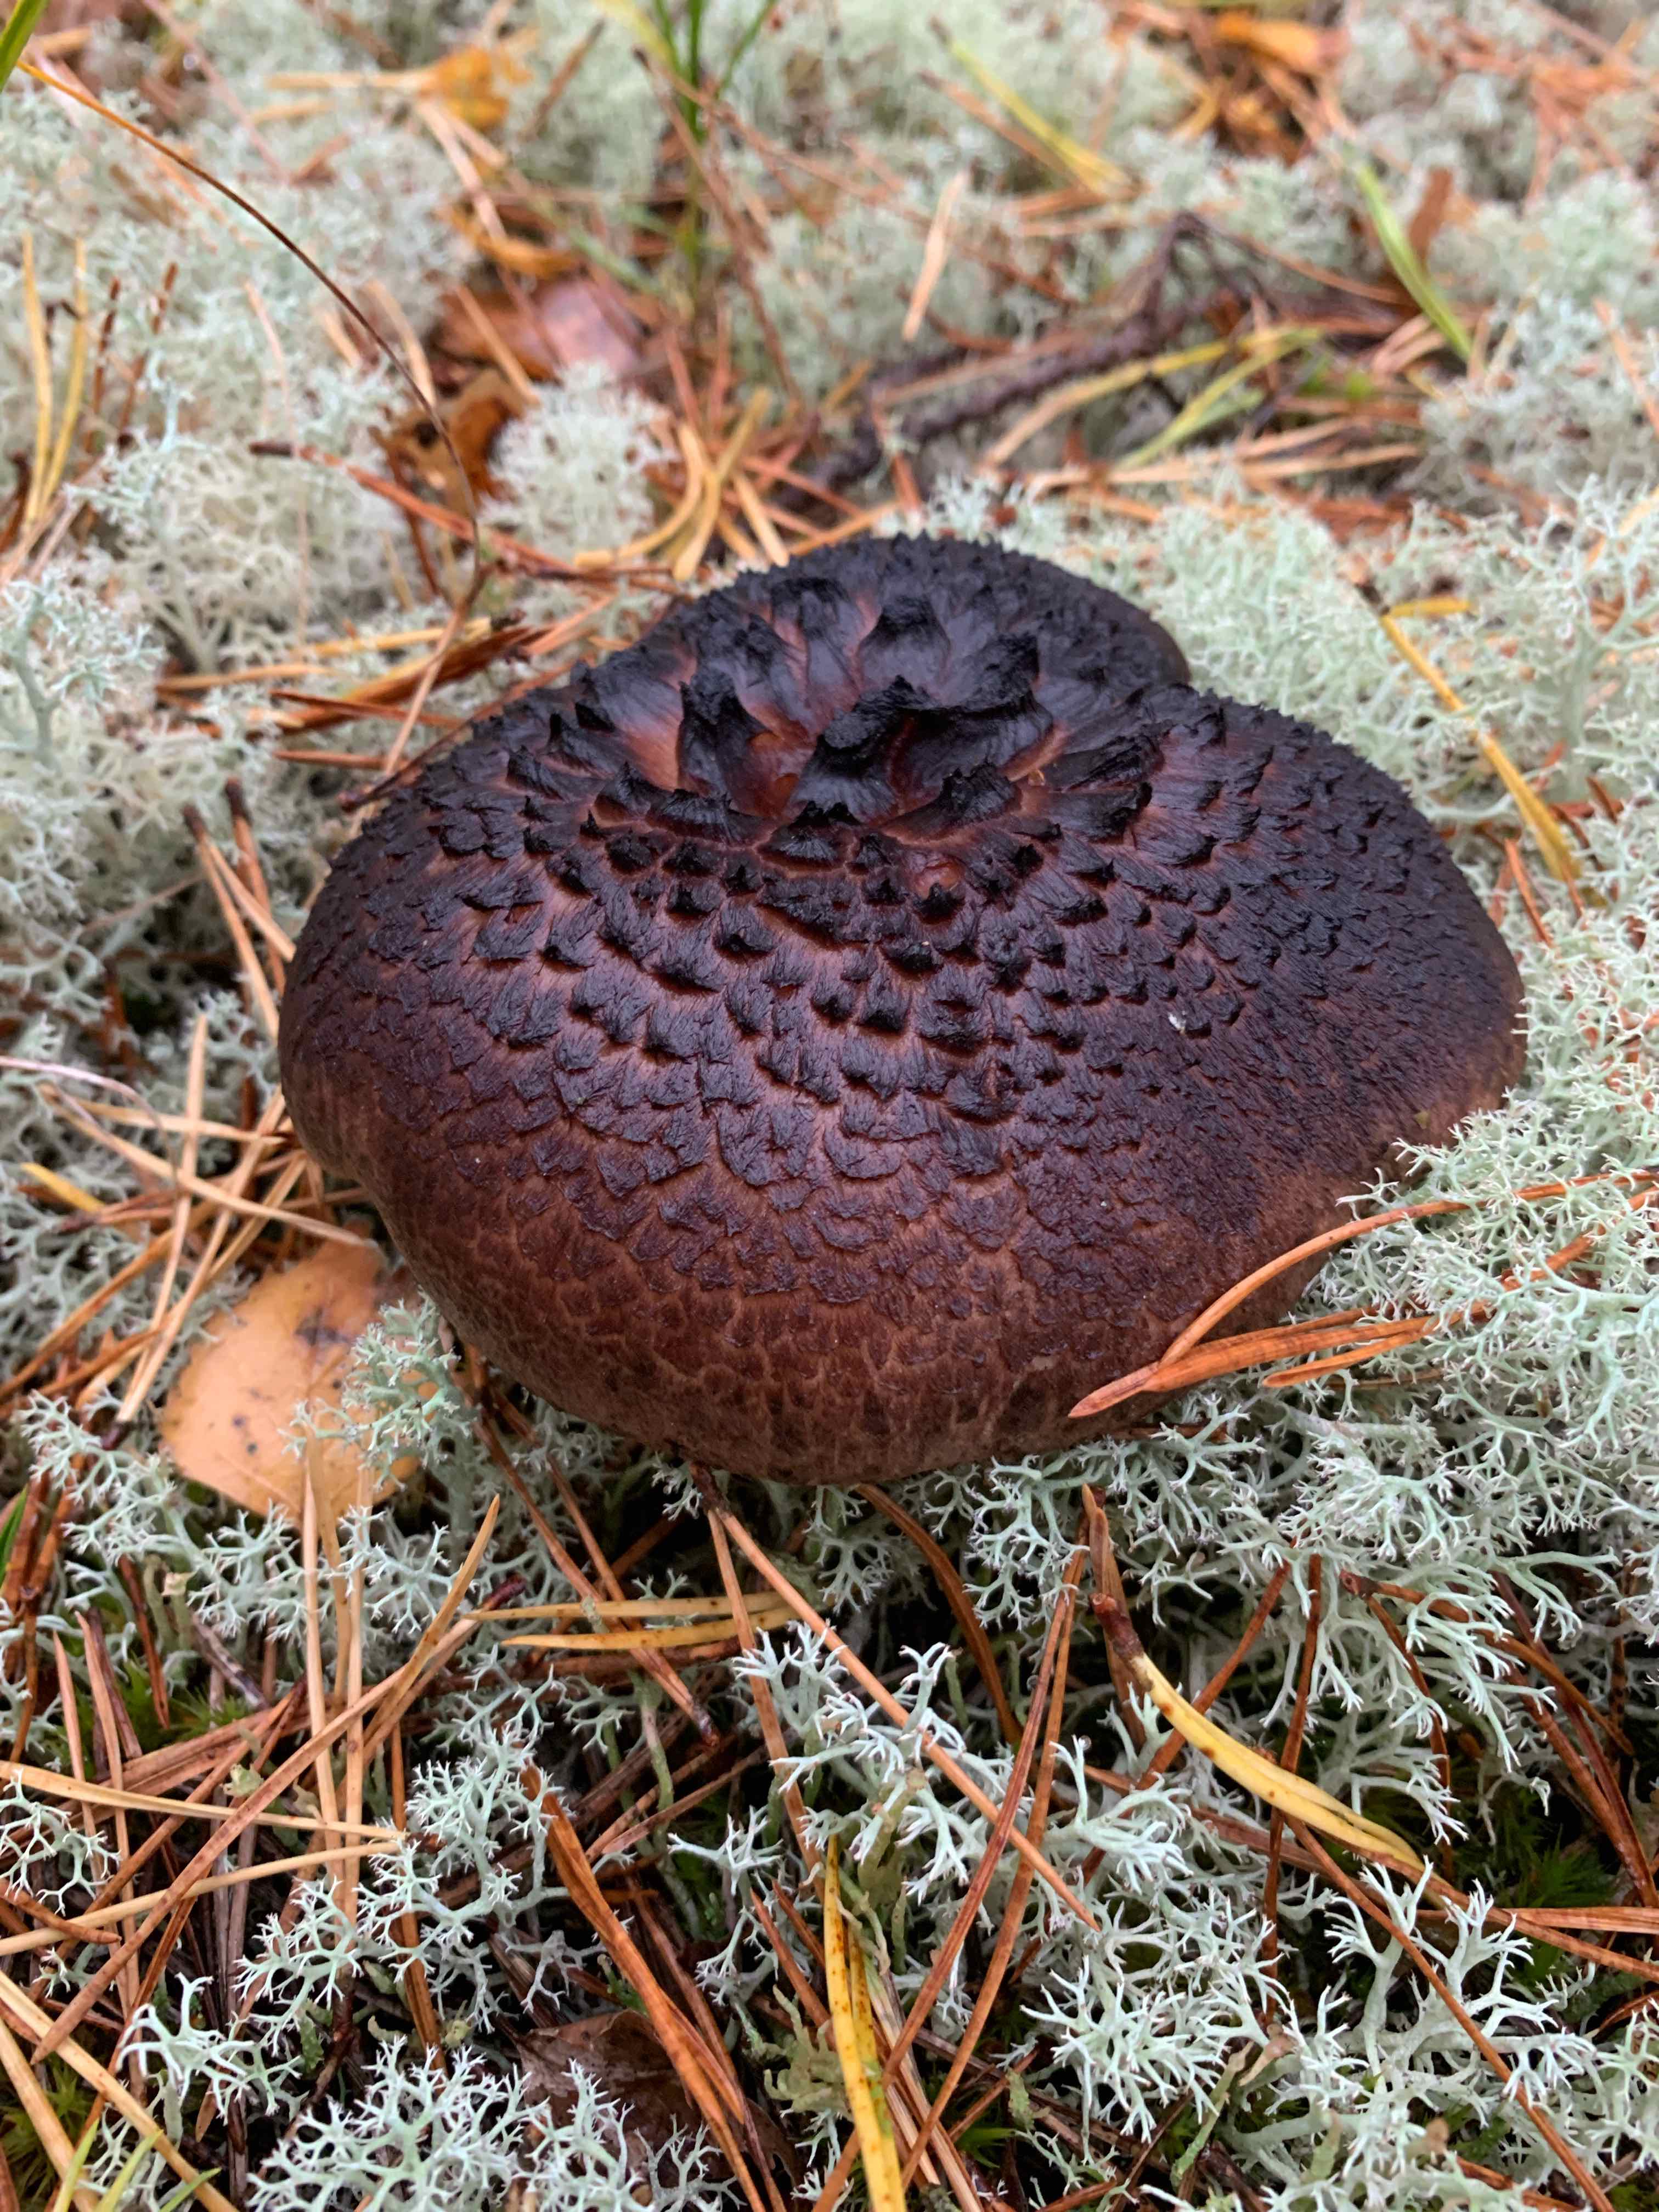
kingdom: Fungi
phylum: Basidiomycota
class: Agaricomycetes
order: Thelephorales
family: Bankeraceae
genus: Sarcodon
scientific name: Sarcodon squamosus
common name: småskællet kødpigsvamp
